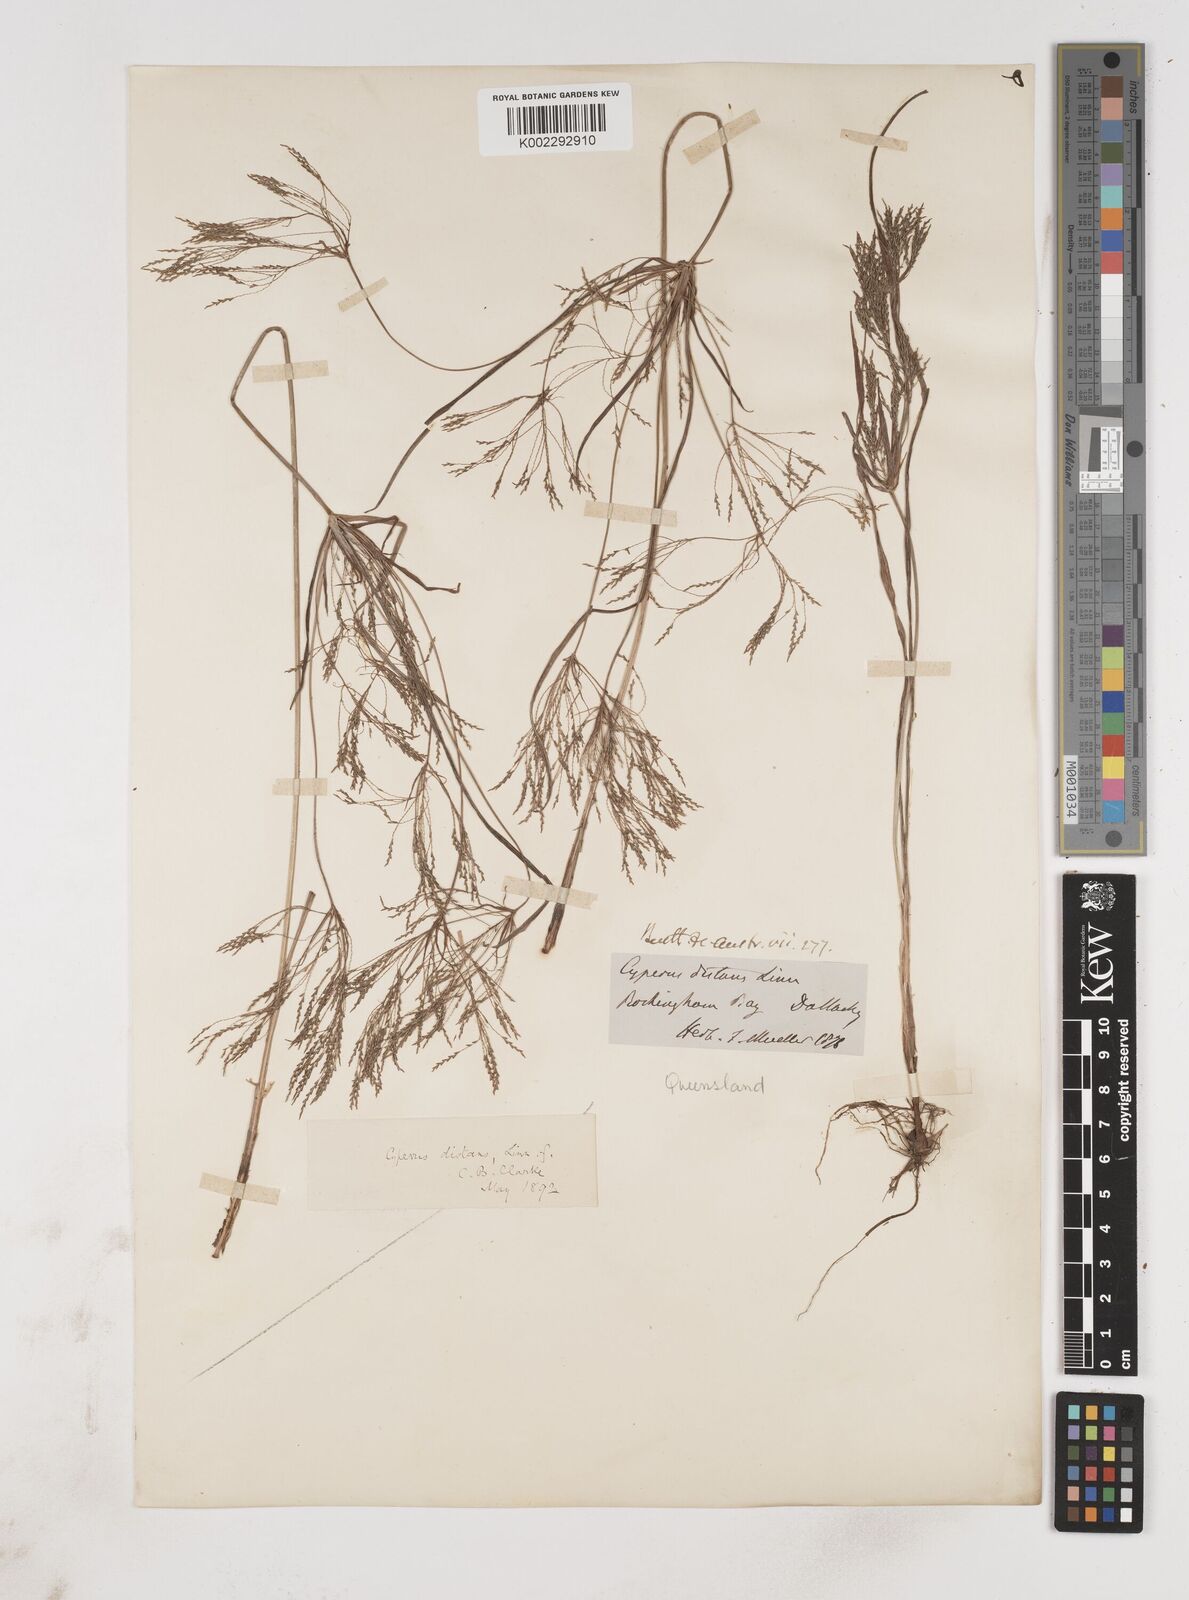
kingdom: Plantae
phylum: Tracheophyta
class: Liliopsida
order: Poales
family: Cyperaceae
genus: Cyperus
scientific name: Cyperus distans
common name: Slender cyperus
